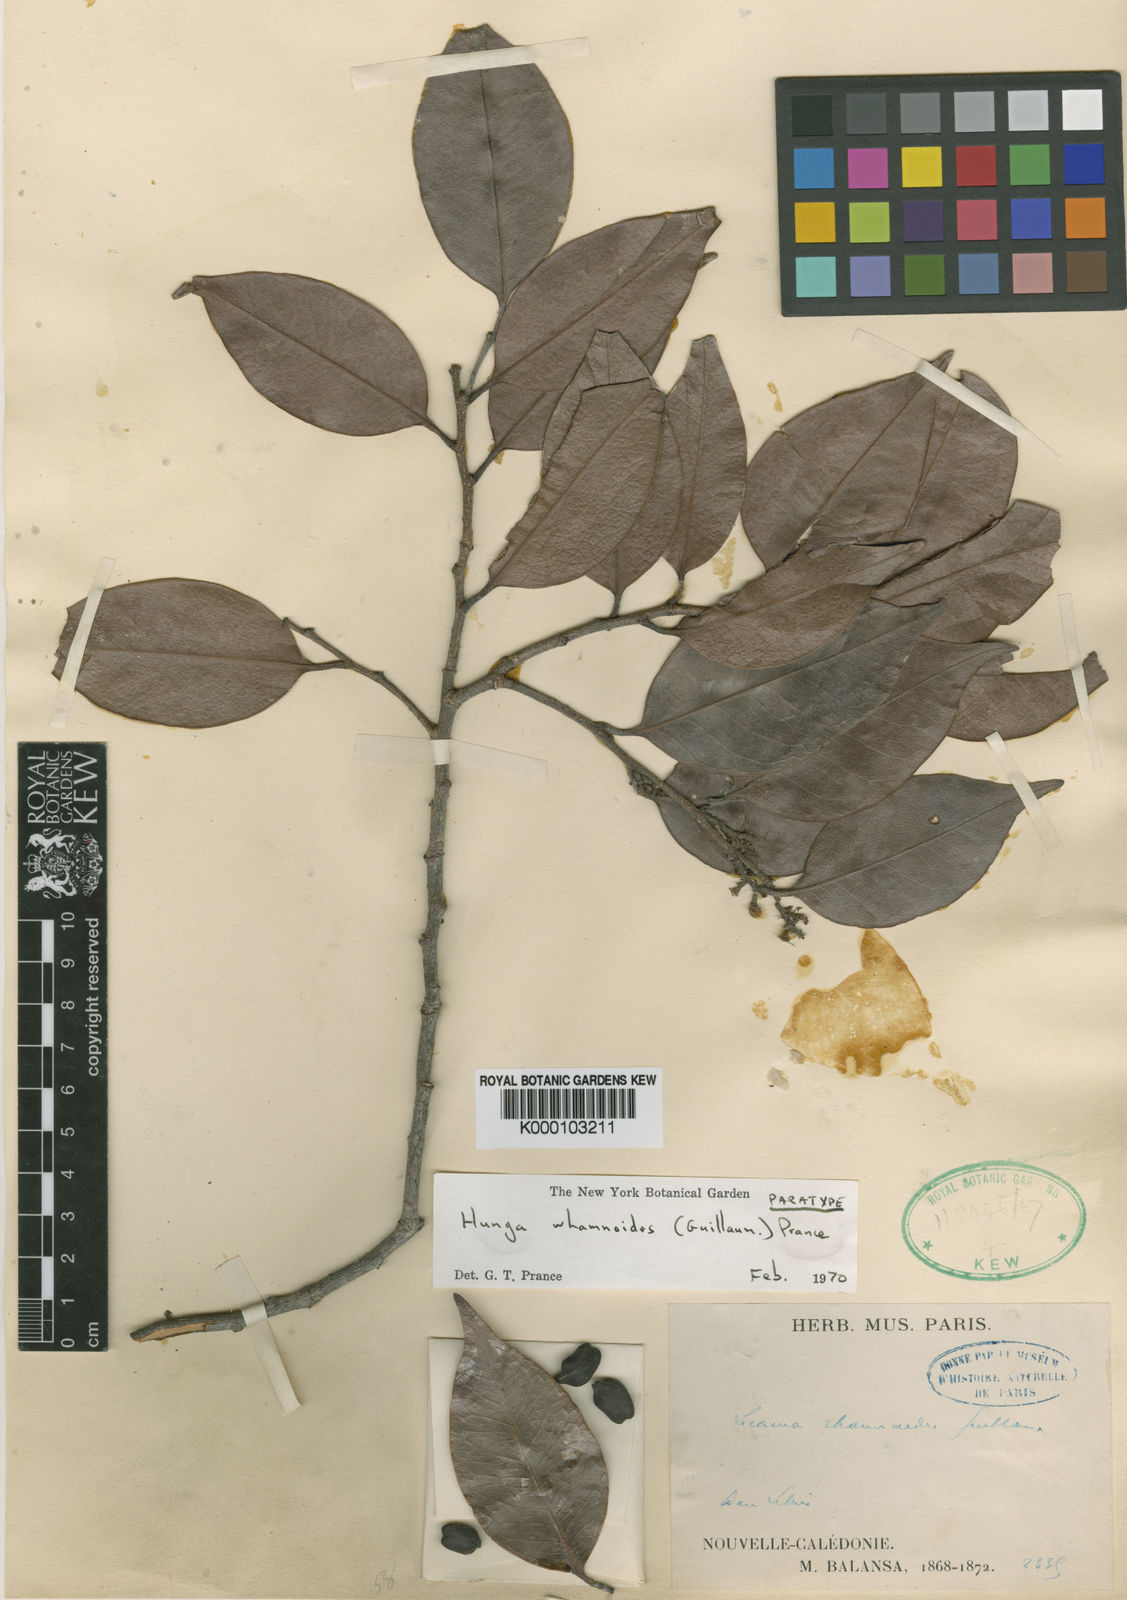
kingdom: Plantae
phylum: Tracheophyta
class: Magnoliopsida
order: Malpighiales
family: Chrysobalanaceae
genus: Hunga
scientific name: Hunga rhamnoides
